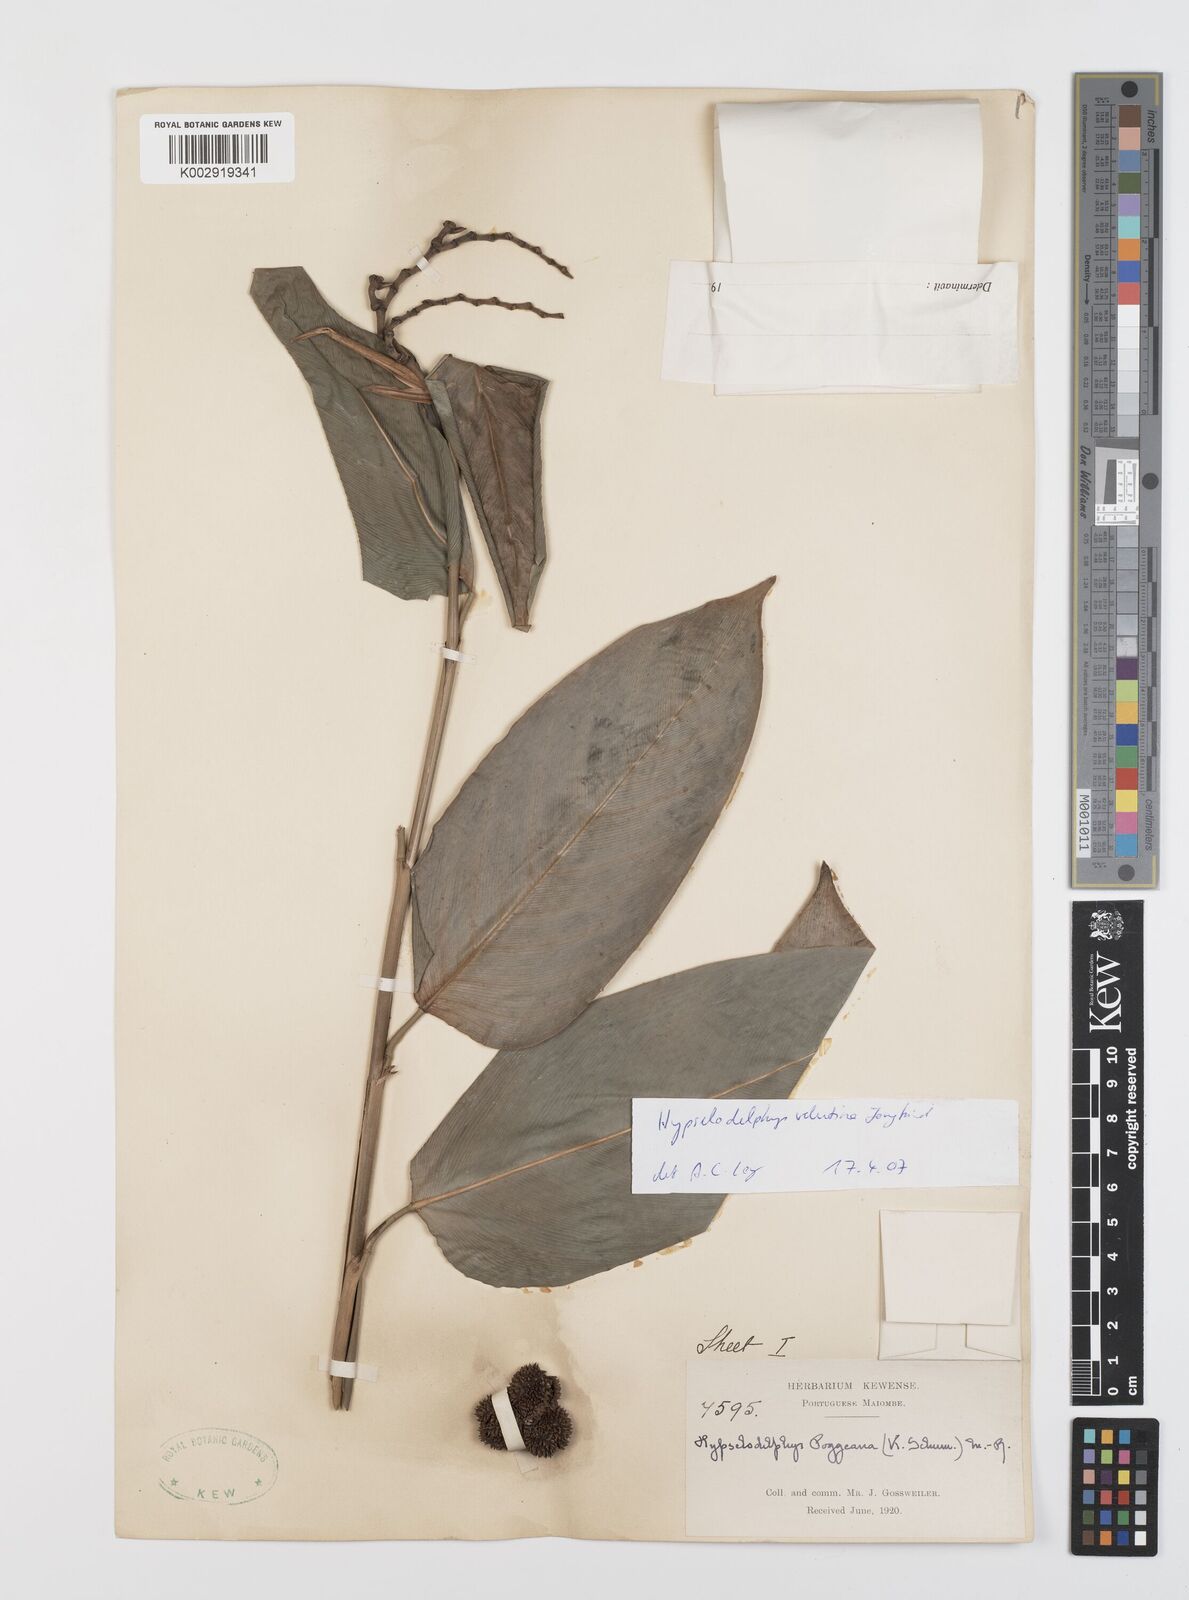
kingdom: Plantae
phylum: Tracheophyta
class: Liliopsida
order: Zingiberales
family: Marantaceae
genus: Hypselodelphys
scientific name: Hypselodelphys velutina
